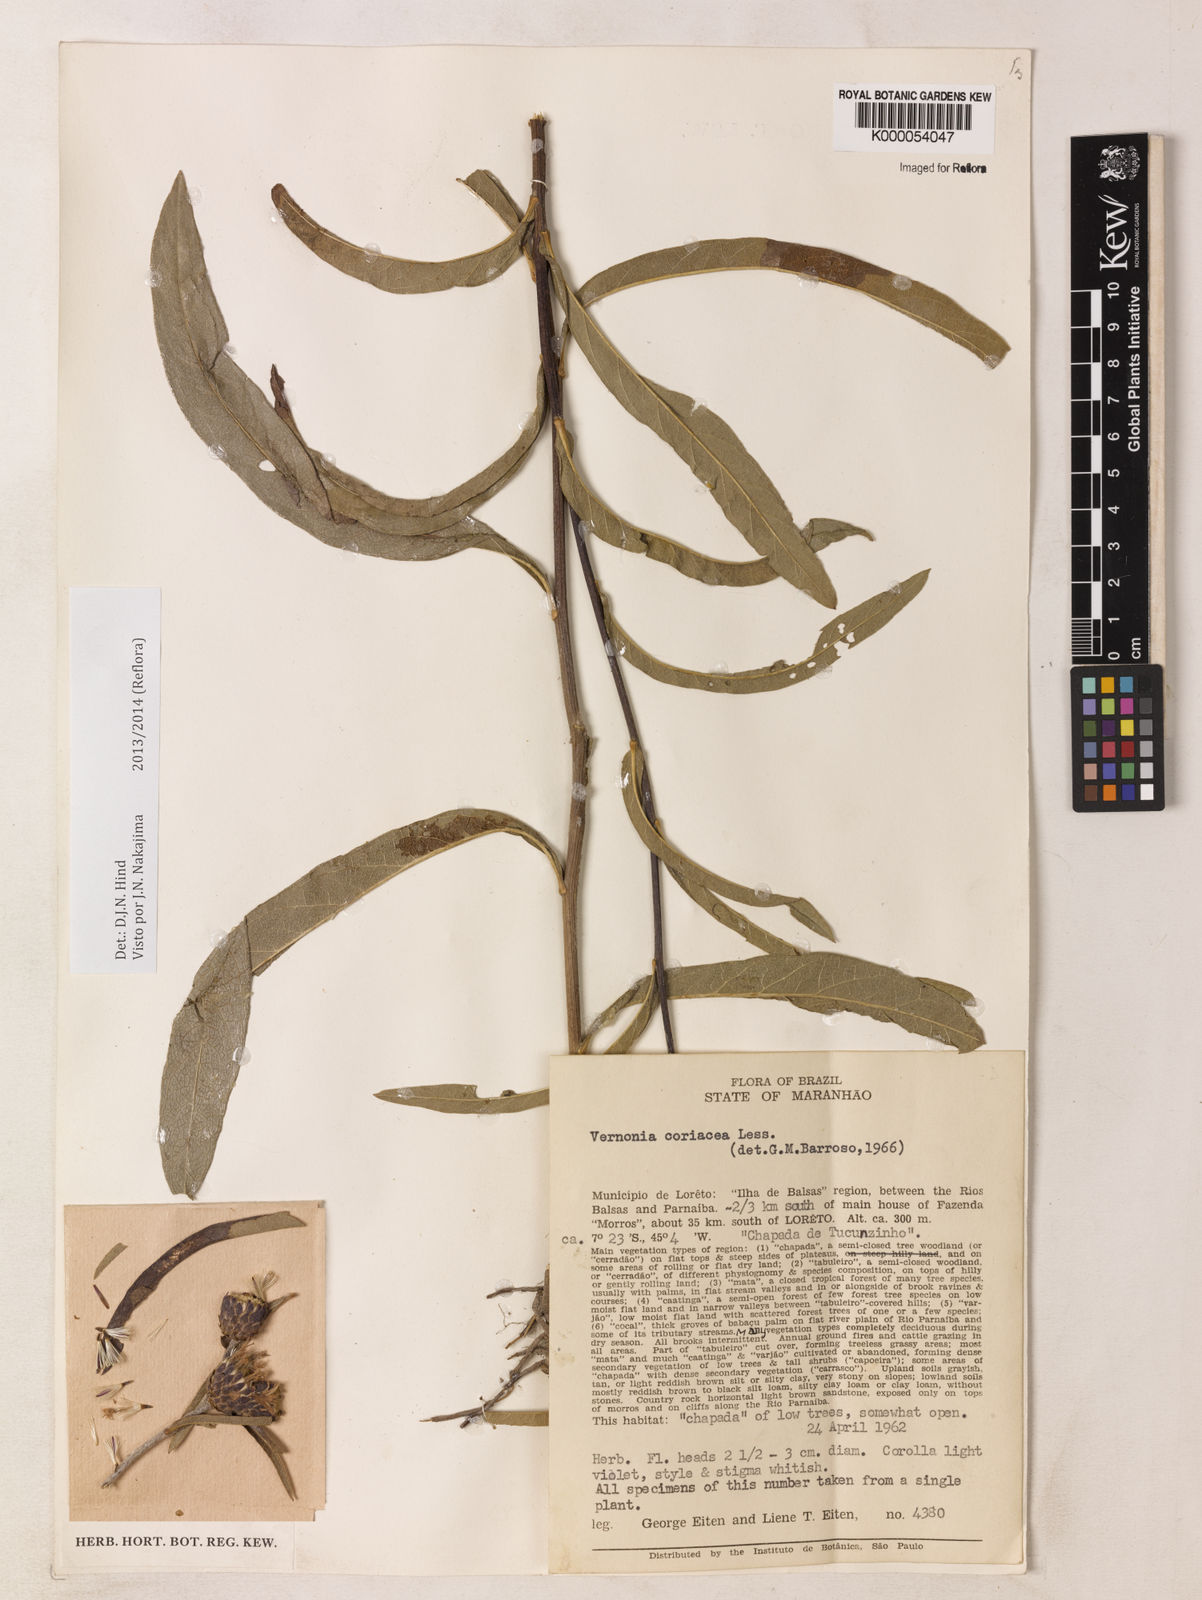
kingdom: Plantae
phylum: Tracheophyta
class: Magnoliopsida
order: Asterales
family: Asteraceae
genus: Lessingianthus
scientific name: Lessingianthus coriaceus
